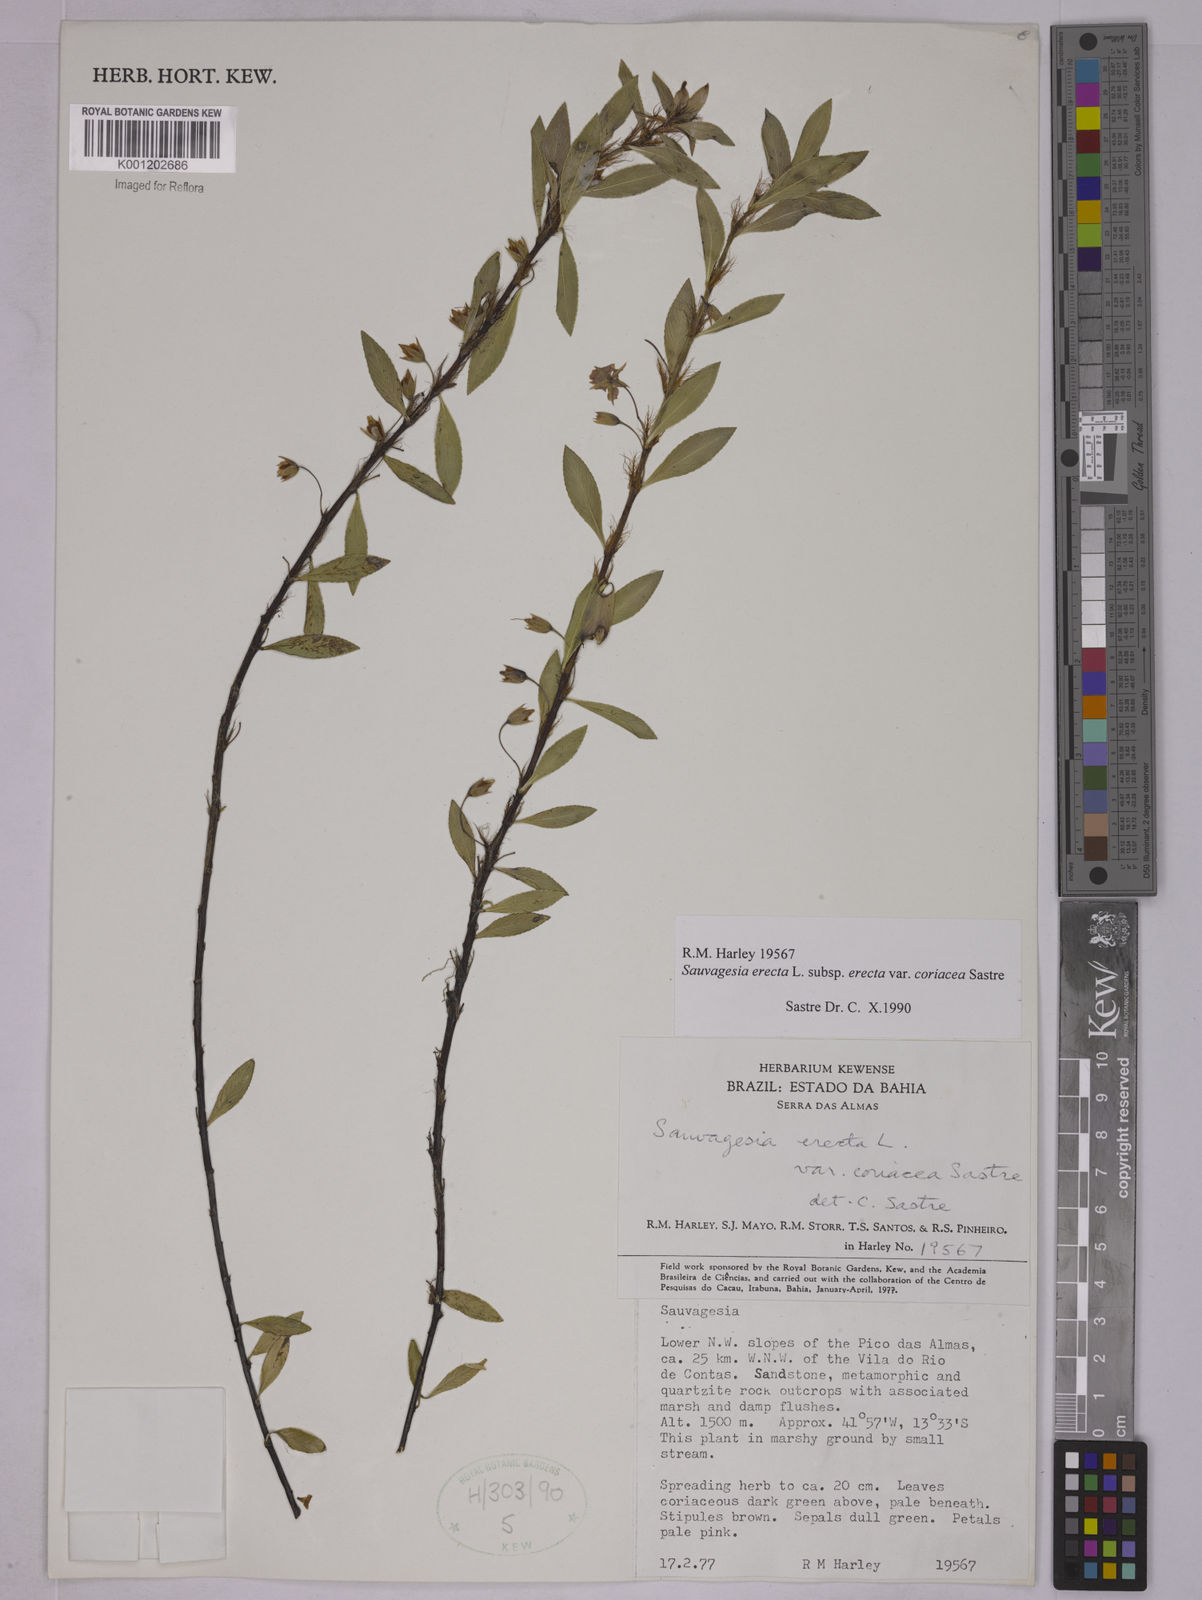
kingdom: Plantae
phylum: Tracheophyta
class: Magnoliopsida
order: Malpighiales
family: Ochnaceae
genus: Sauvagesia
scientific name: Sauvagesia erecta
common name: Creole tea
